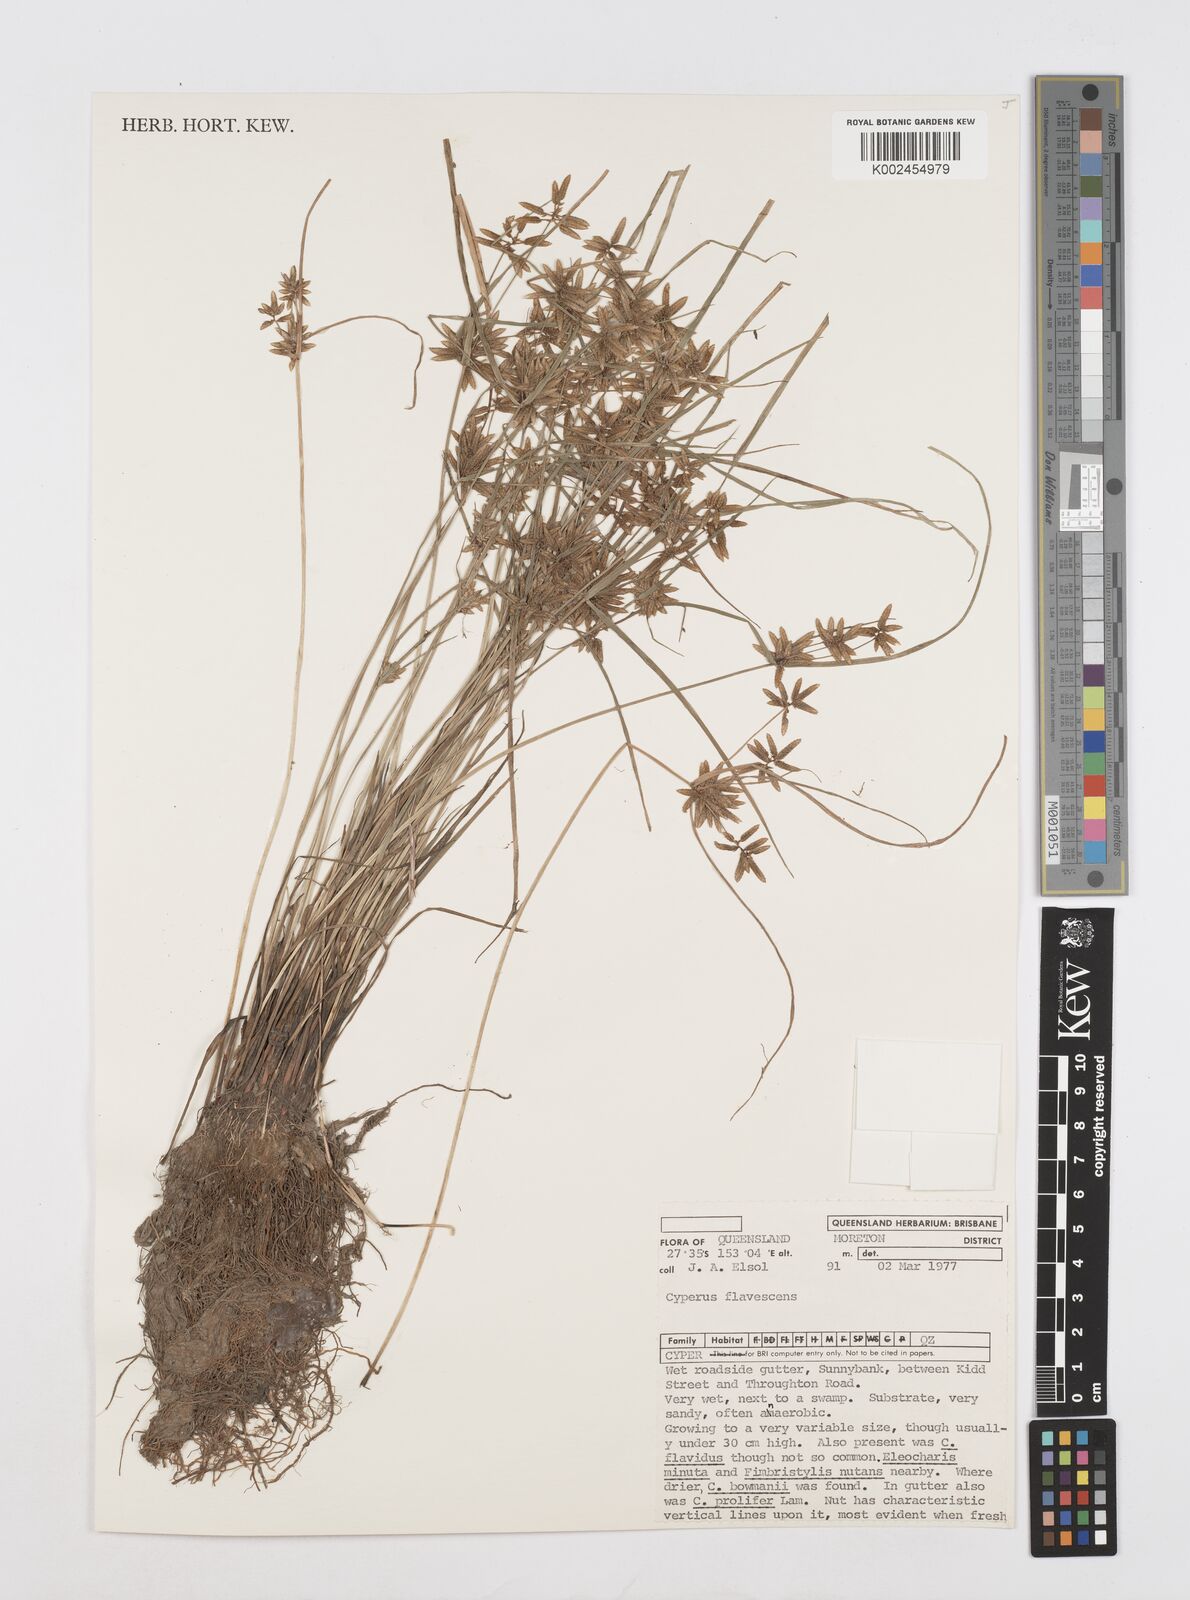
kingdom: Plantae
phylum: Tracheophyta
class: Liliopsida
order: Poales
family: Cyperaceae
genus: Cyperus
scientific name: Cyperus flavescens
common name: Yellow galingale
